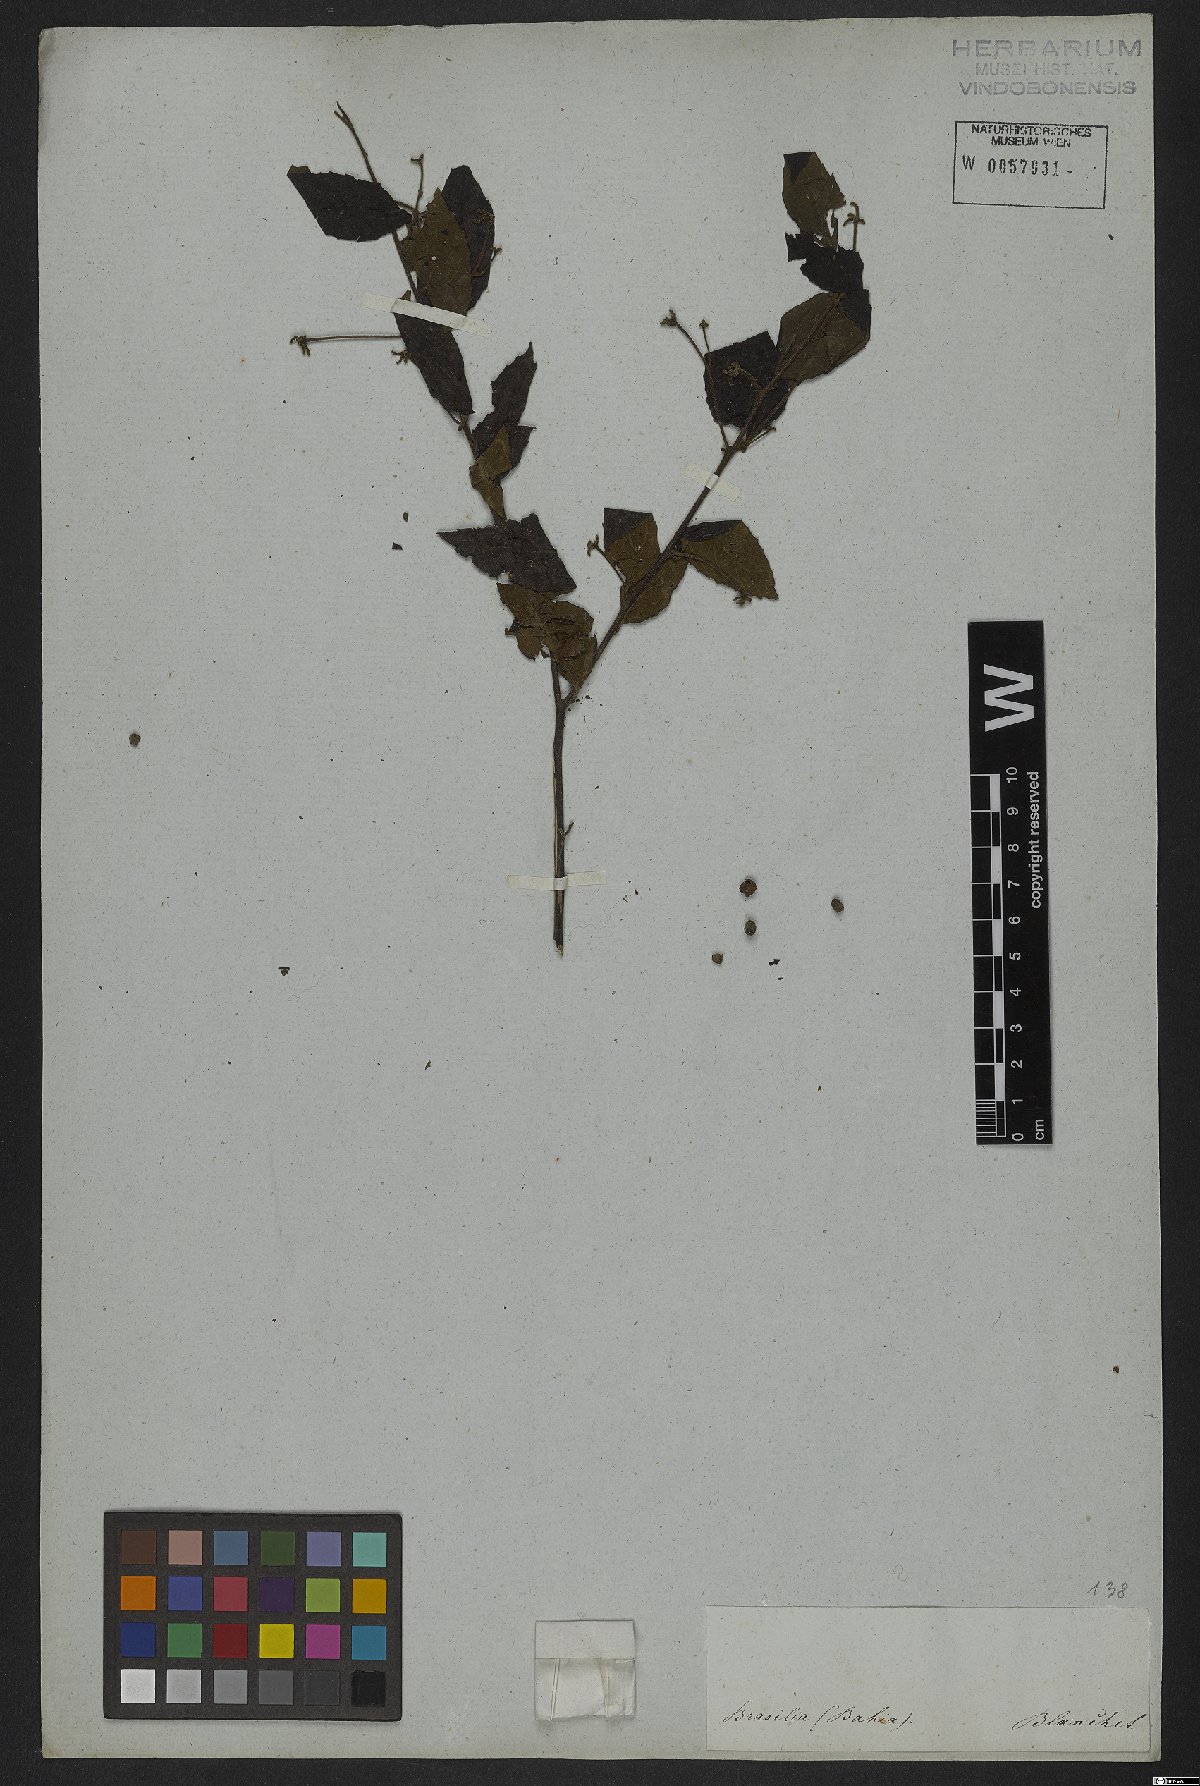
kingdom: Plantae
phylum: Tracheophyta
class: Magnoliopsida
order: Boraginales
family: Cordiaceae
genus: Cordia
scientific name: Cordia
